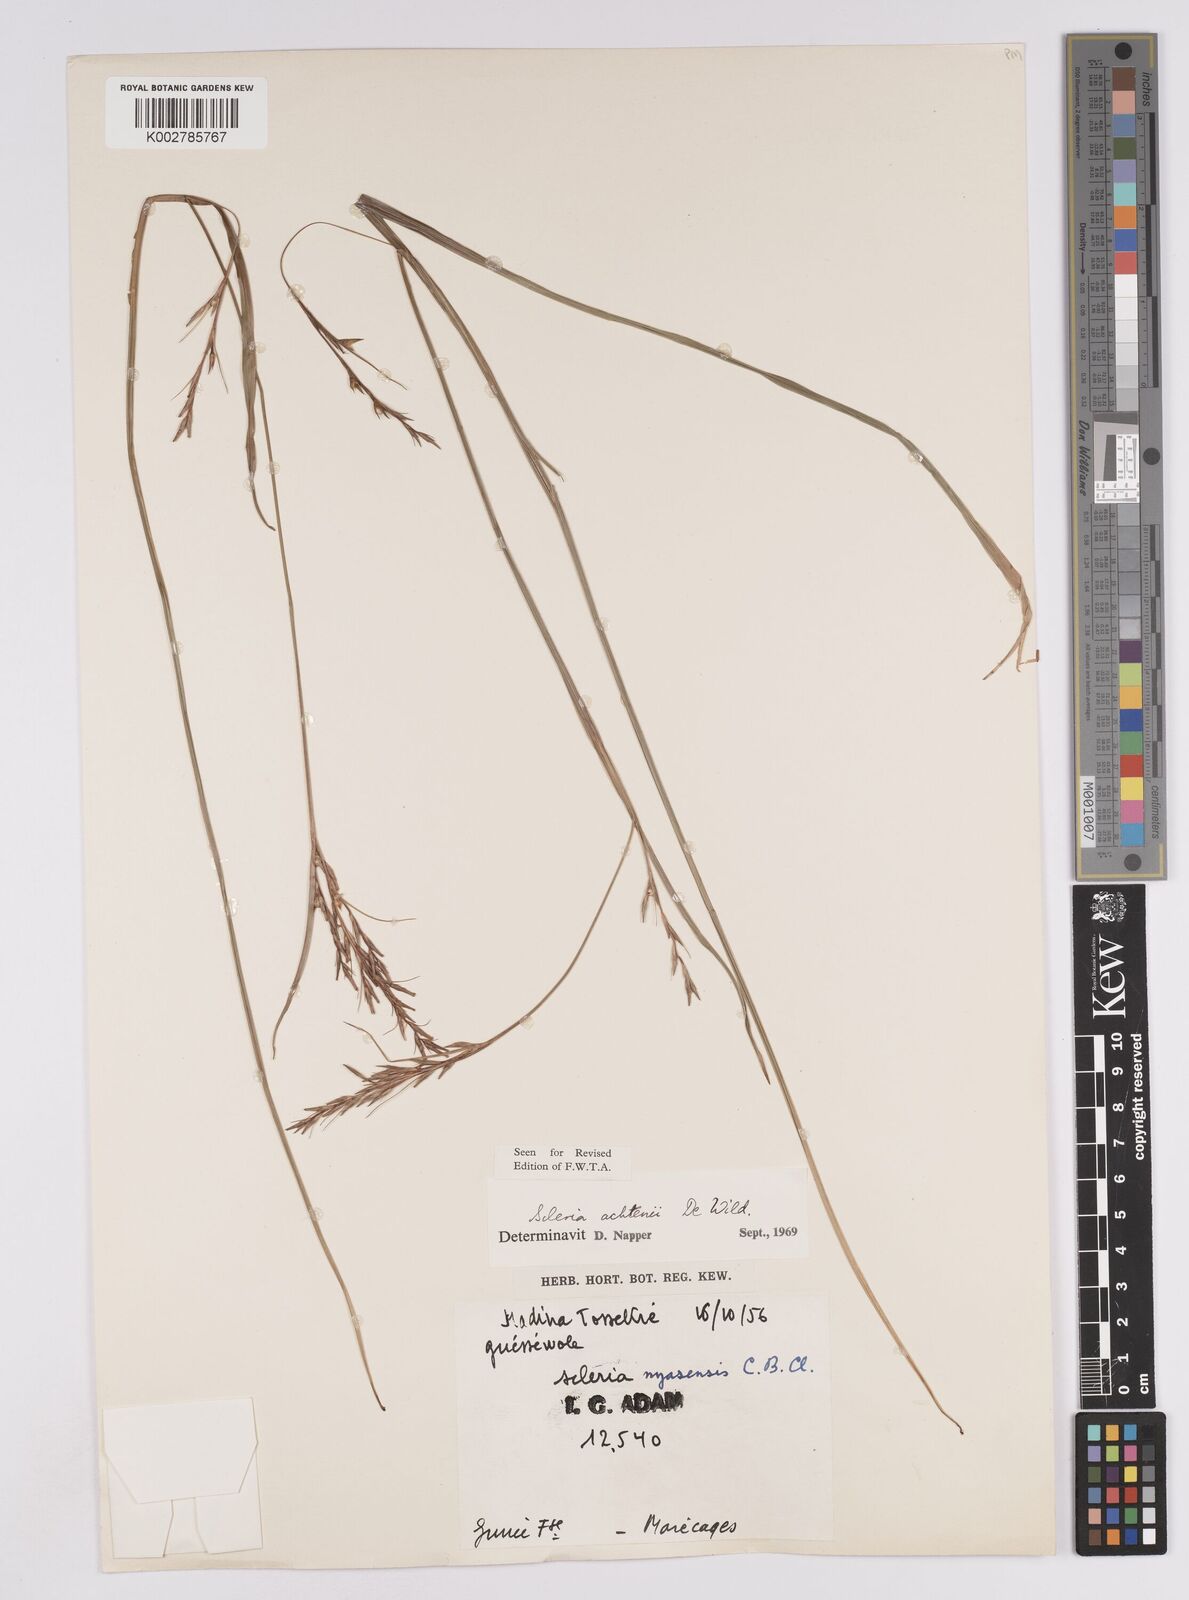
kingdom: Plantae
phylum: Tracheophyta
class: Liliopsida
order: Poales
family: Cyperaceae
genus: Scleria
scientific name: Scleria achtenii
